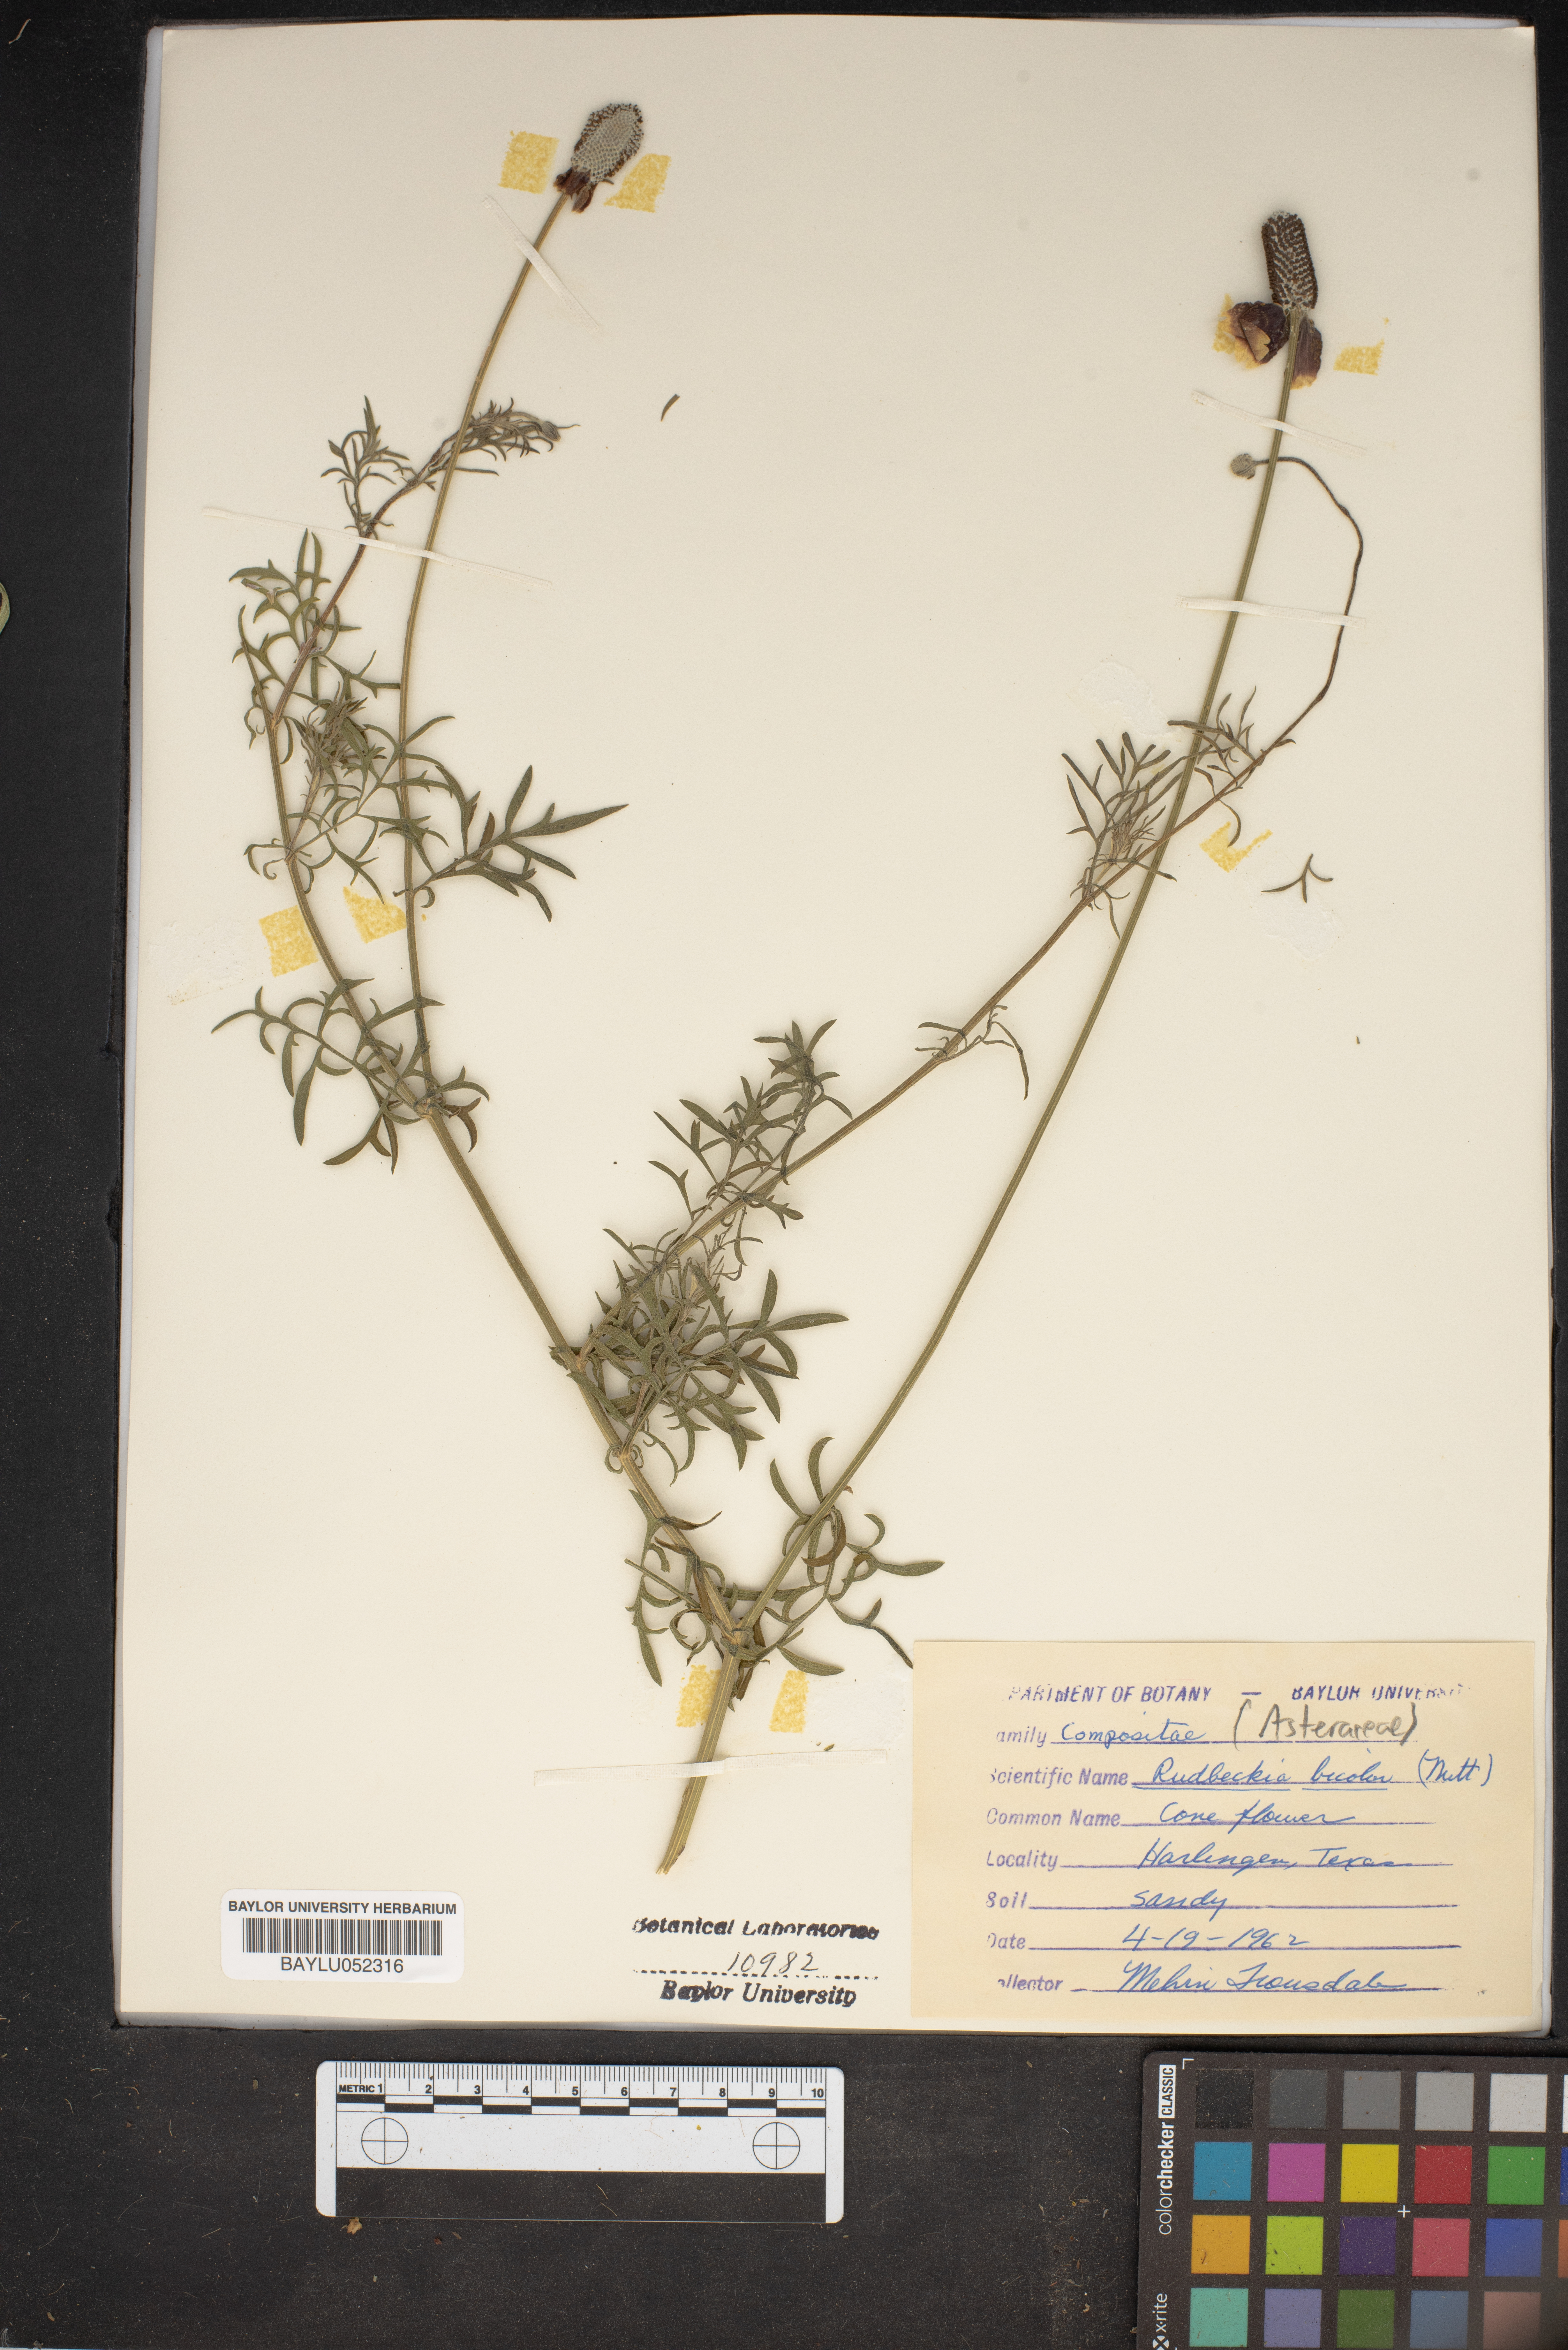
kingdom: Plantae
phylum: Tracheophyta
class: Magnoliopsida
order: Asterales
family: Asteraceae
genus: Rudbeckia
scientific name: Rudbeckia hirta
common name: Black-eyed-susan
